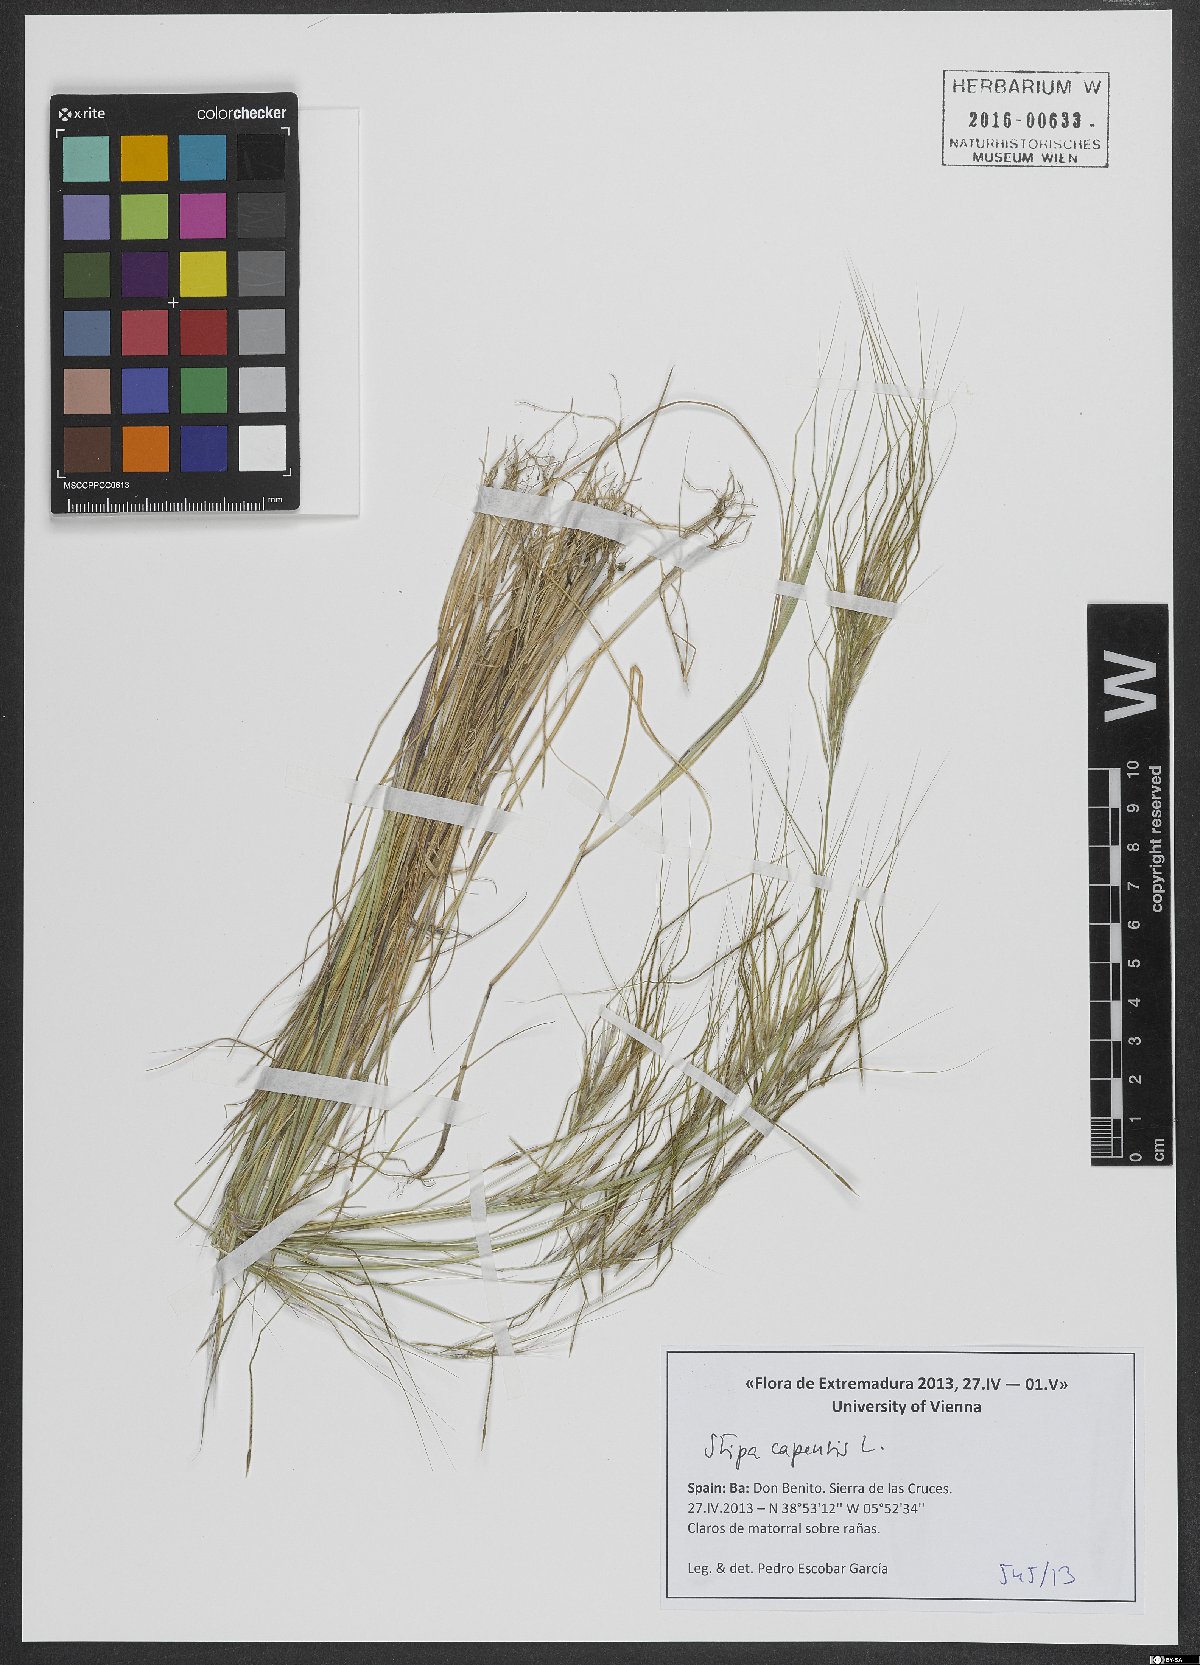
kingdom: Plantae
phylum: Tracheophyta
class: Liliopsida
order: Poales
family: Poaceae
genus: Stipellula
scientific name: Stipellula capensis
